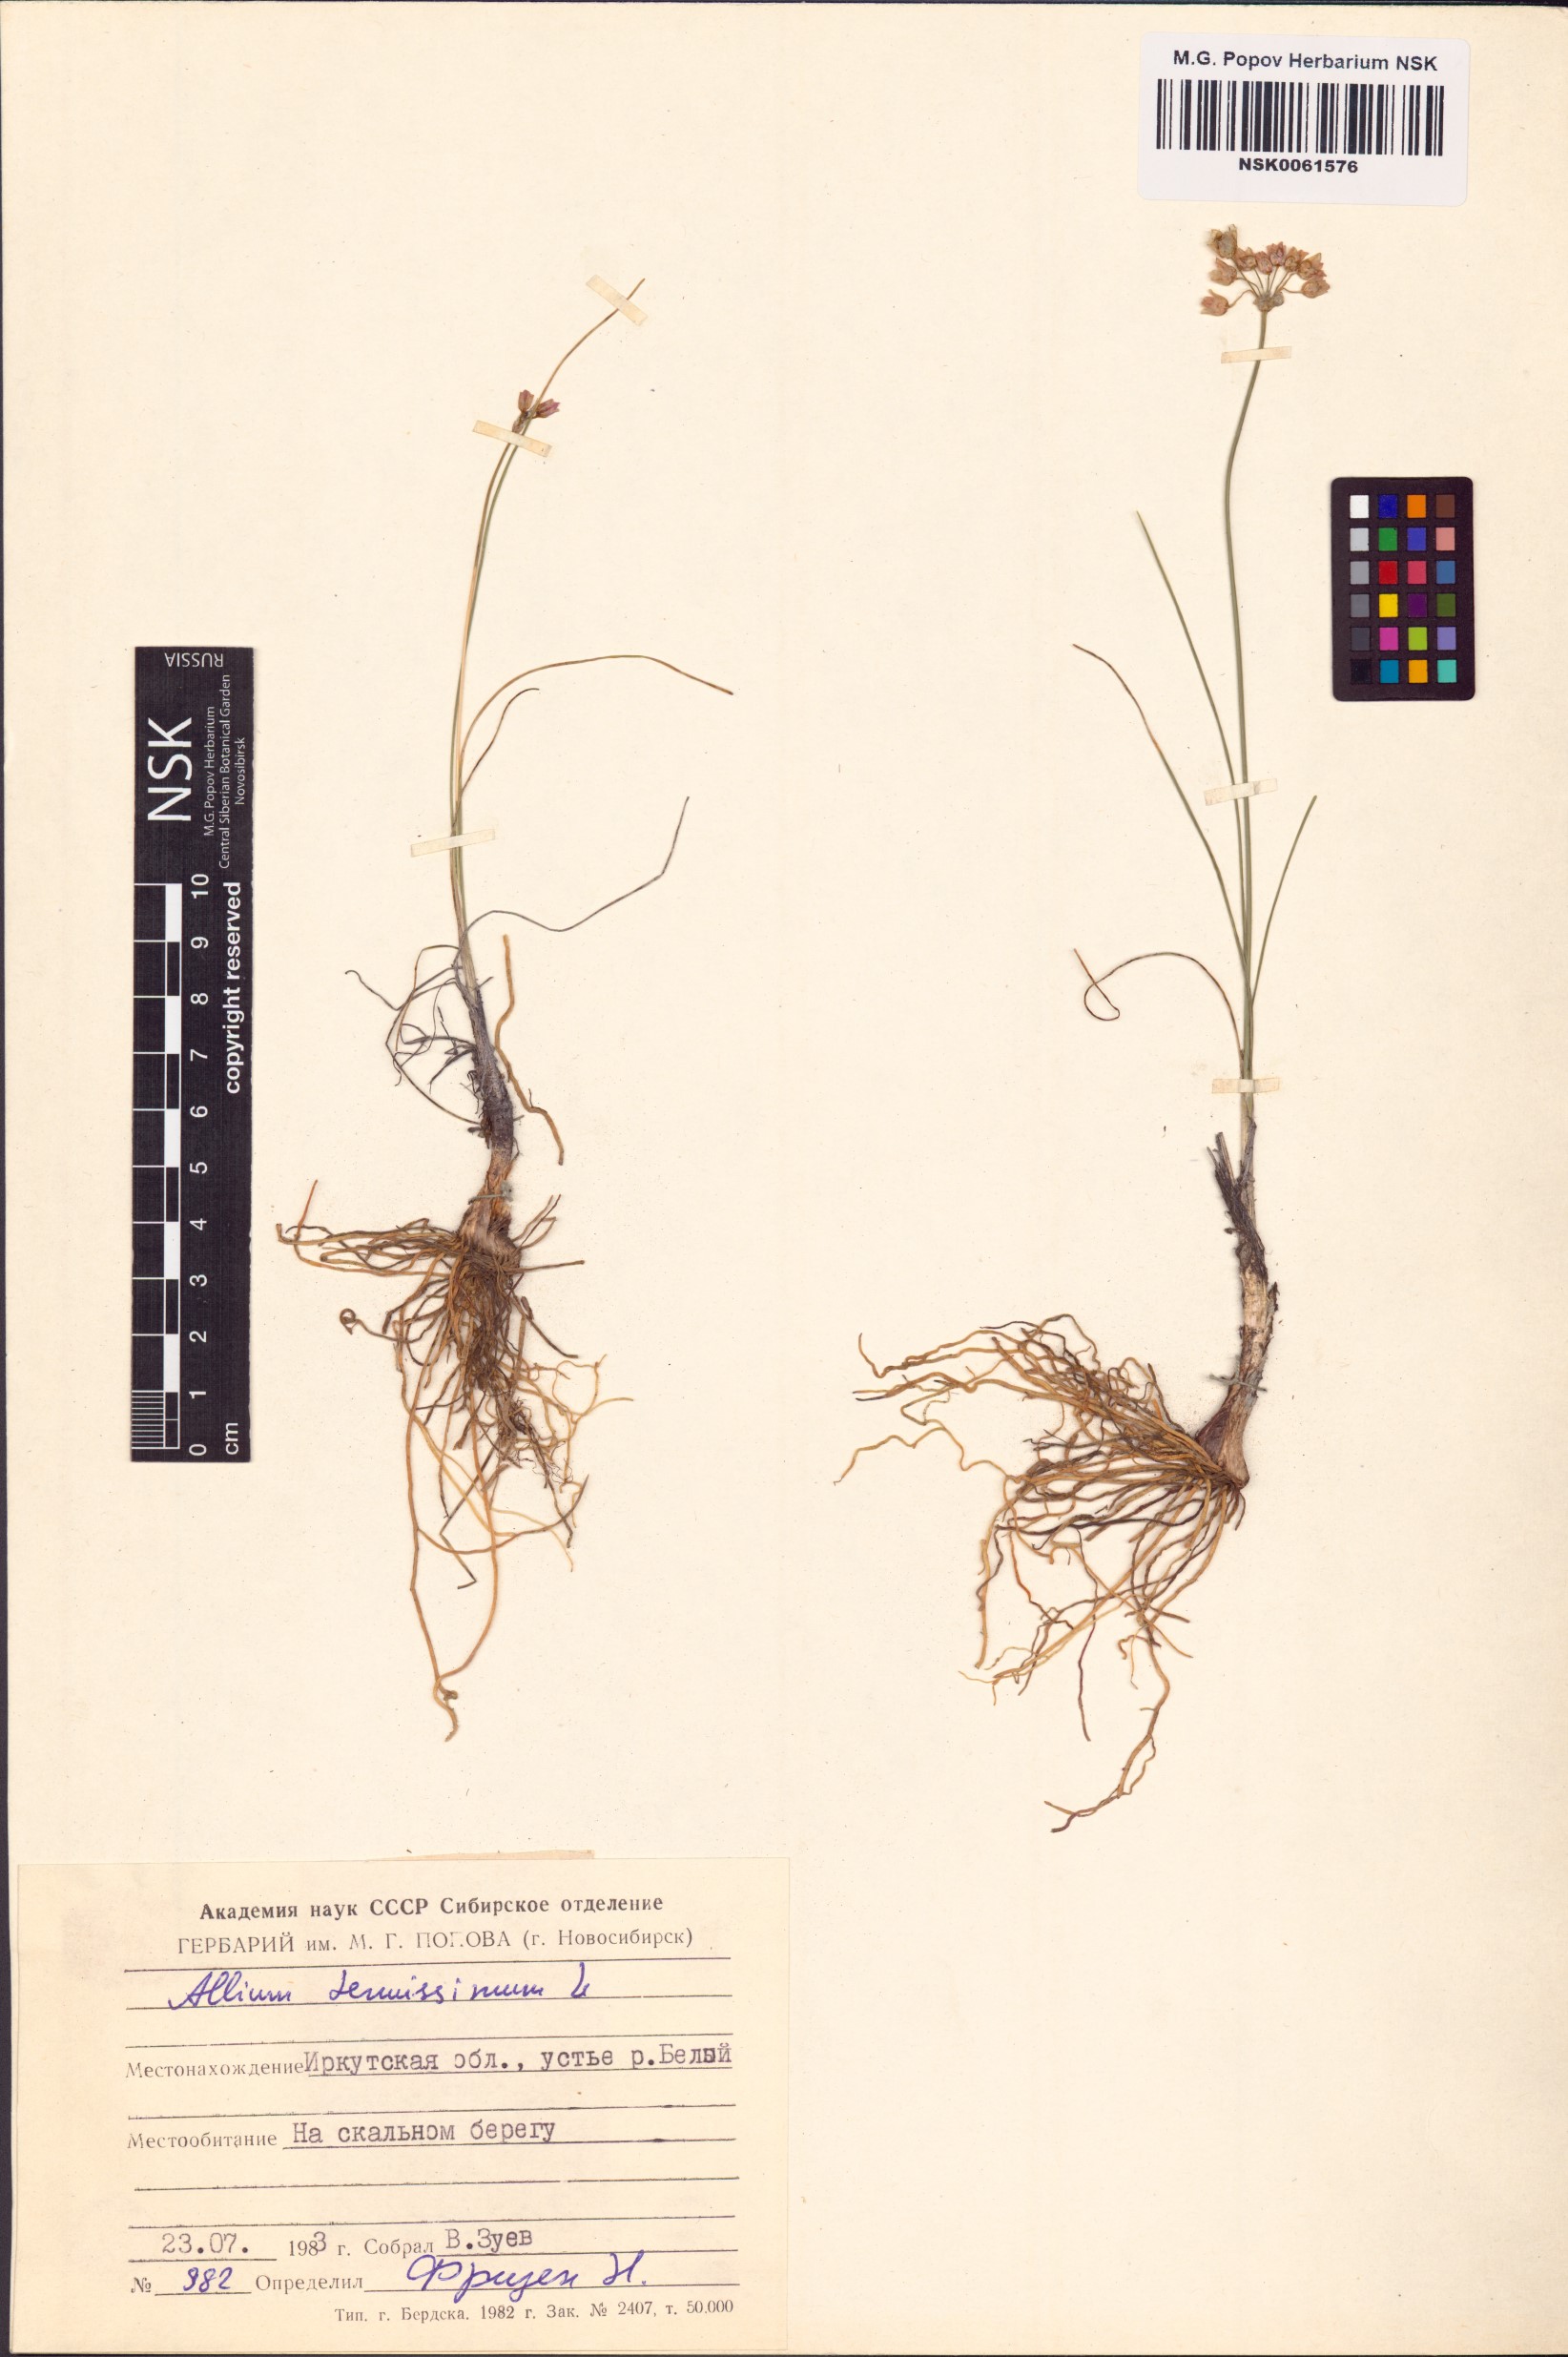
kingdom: Plantae
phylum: Tracheophyta
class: Liliopsida
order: Asparagales
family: Amaryllidaceae
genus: Allium
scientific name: Allium tenuissimum
